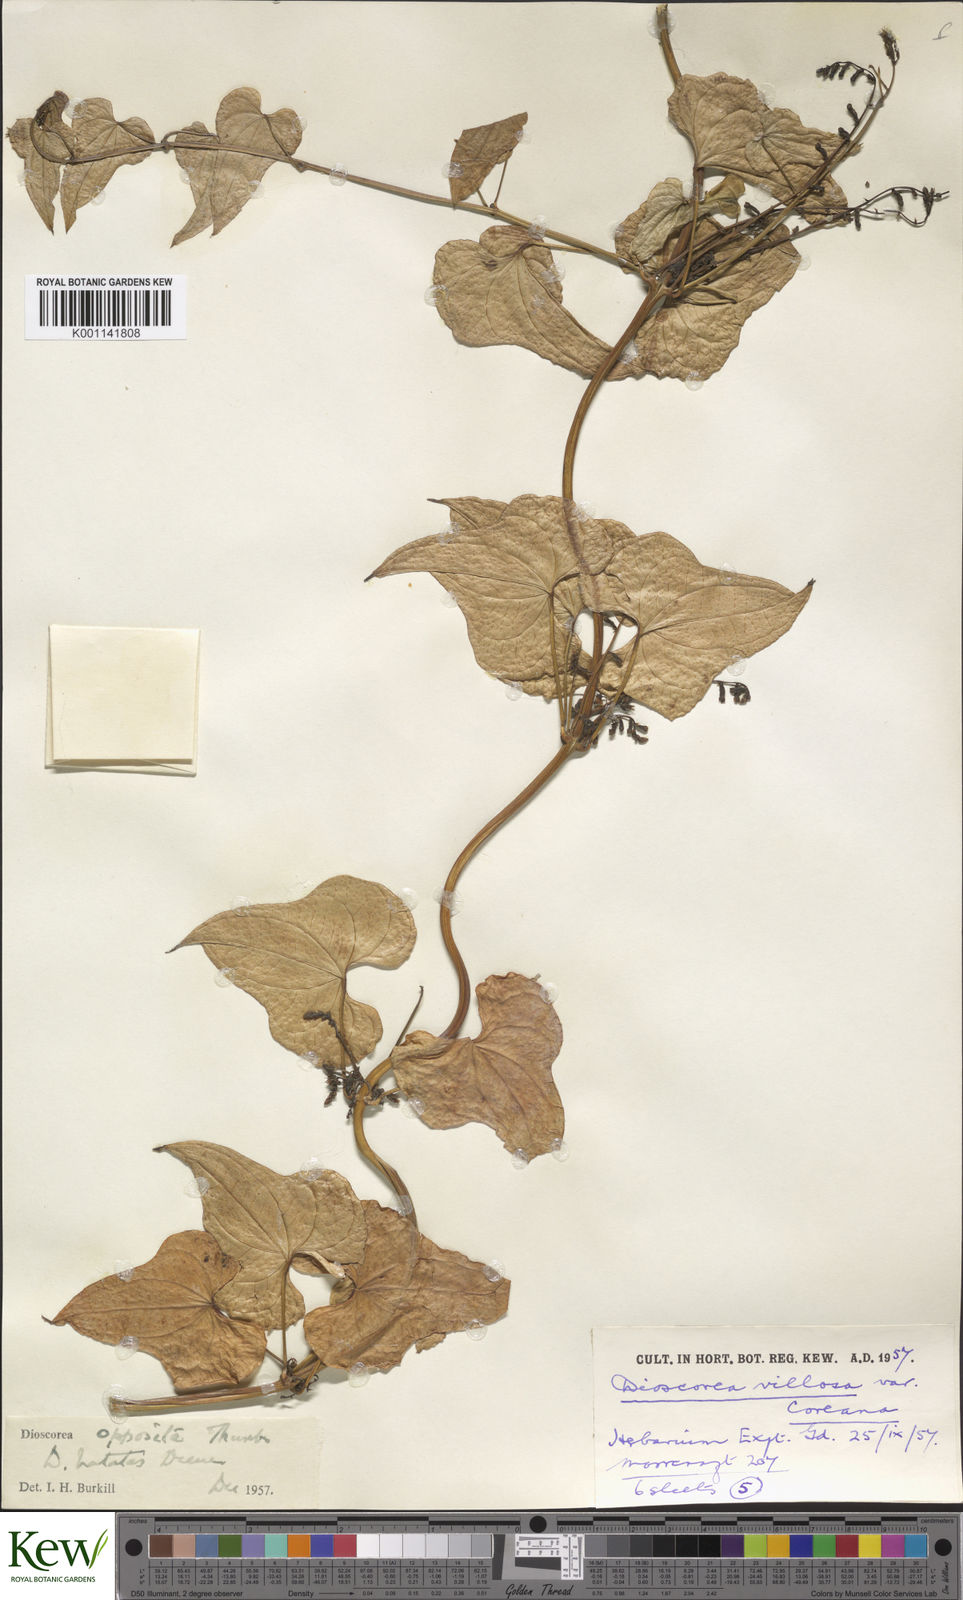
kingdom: Plantae
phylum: Tracheophyta
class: Liliopsida
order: Dioscoreales
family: Dioscoreaceae
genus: Dioscorea
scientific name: Dioscorea oppositifolia
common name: Chinese yam
